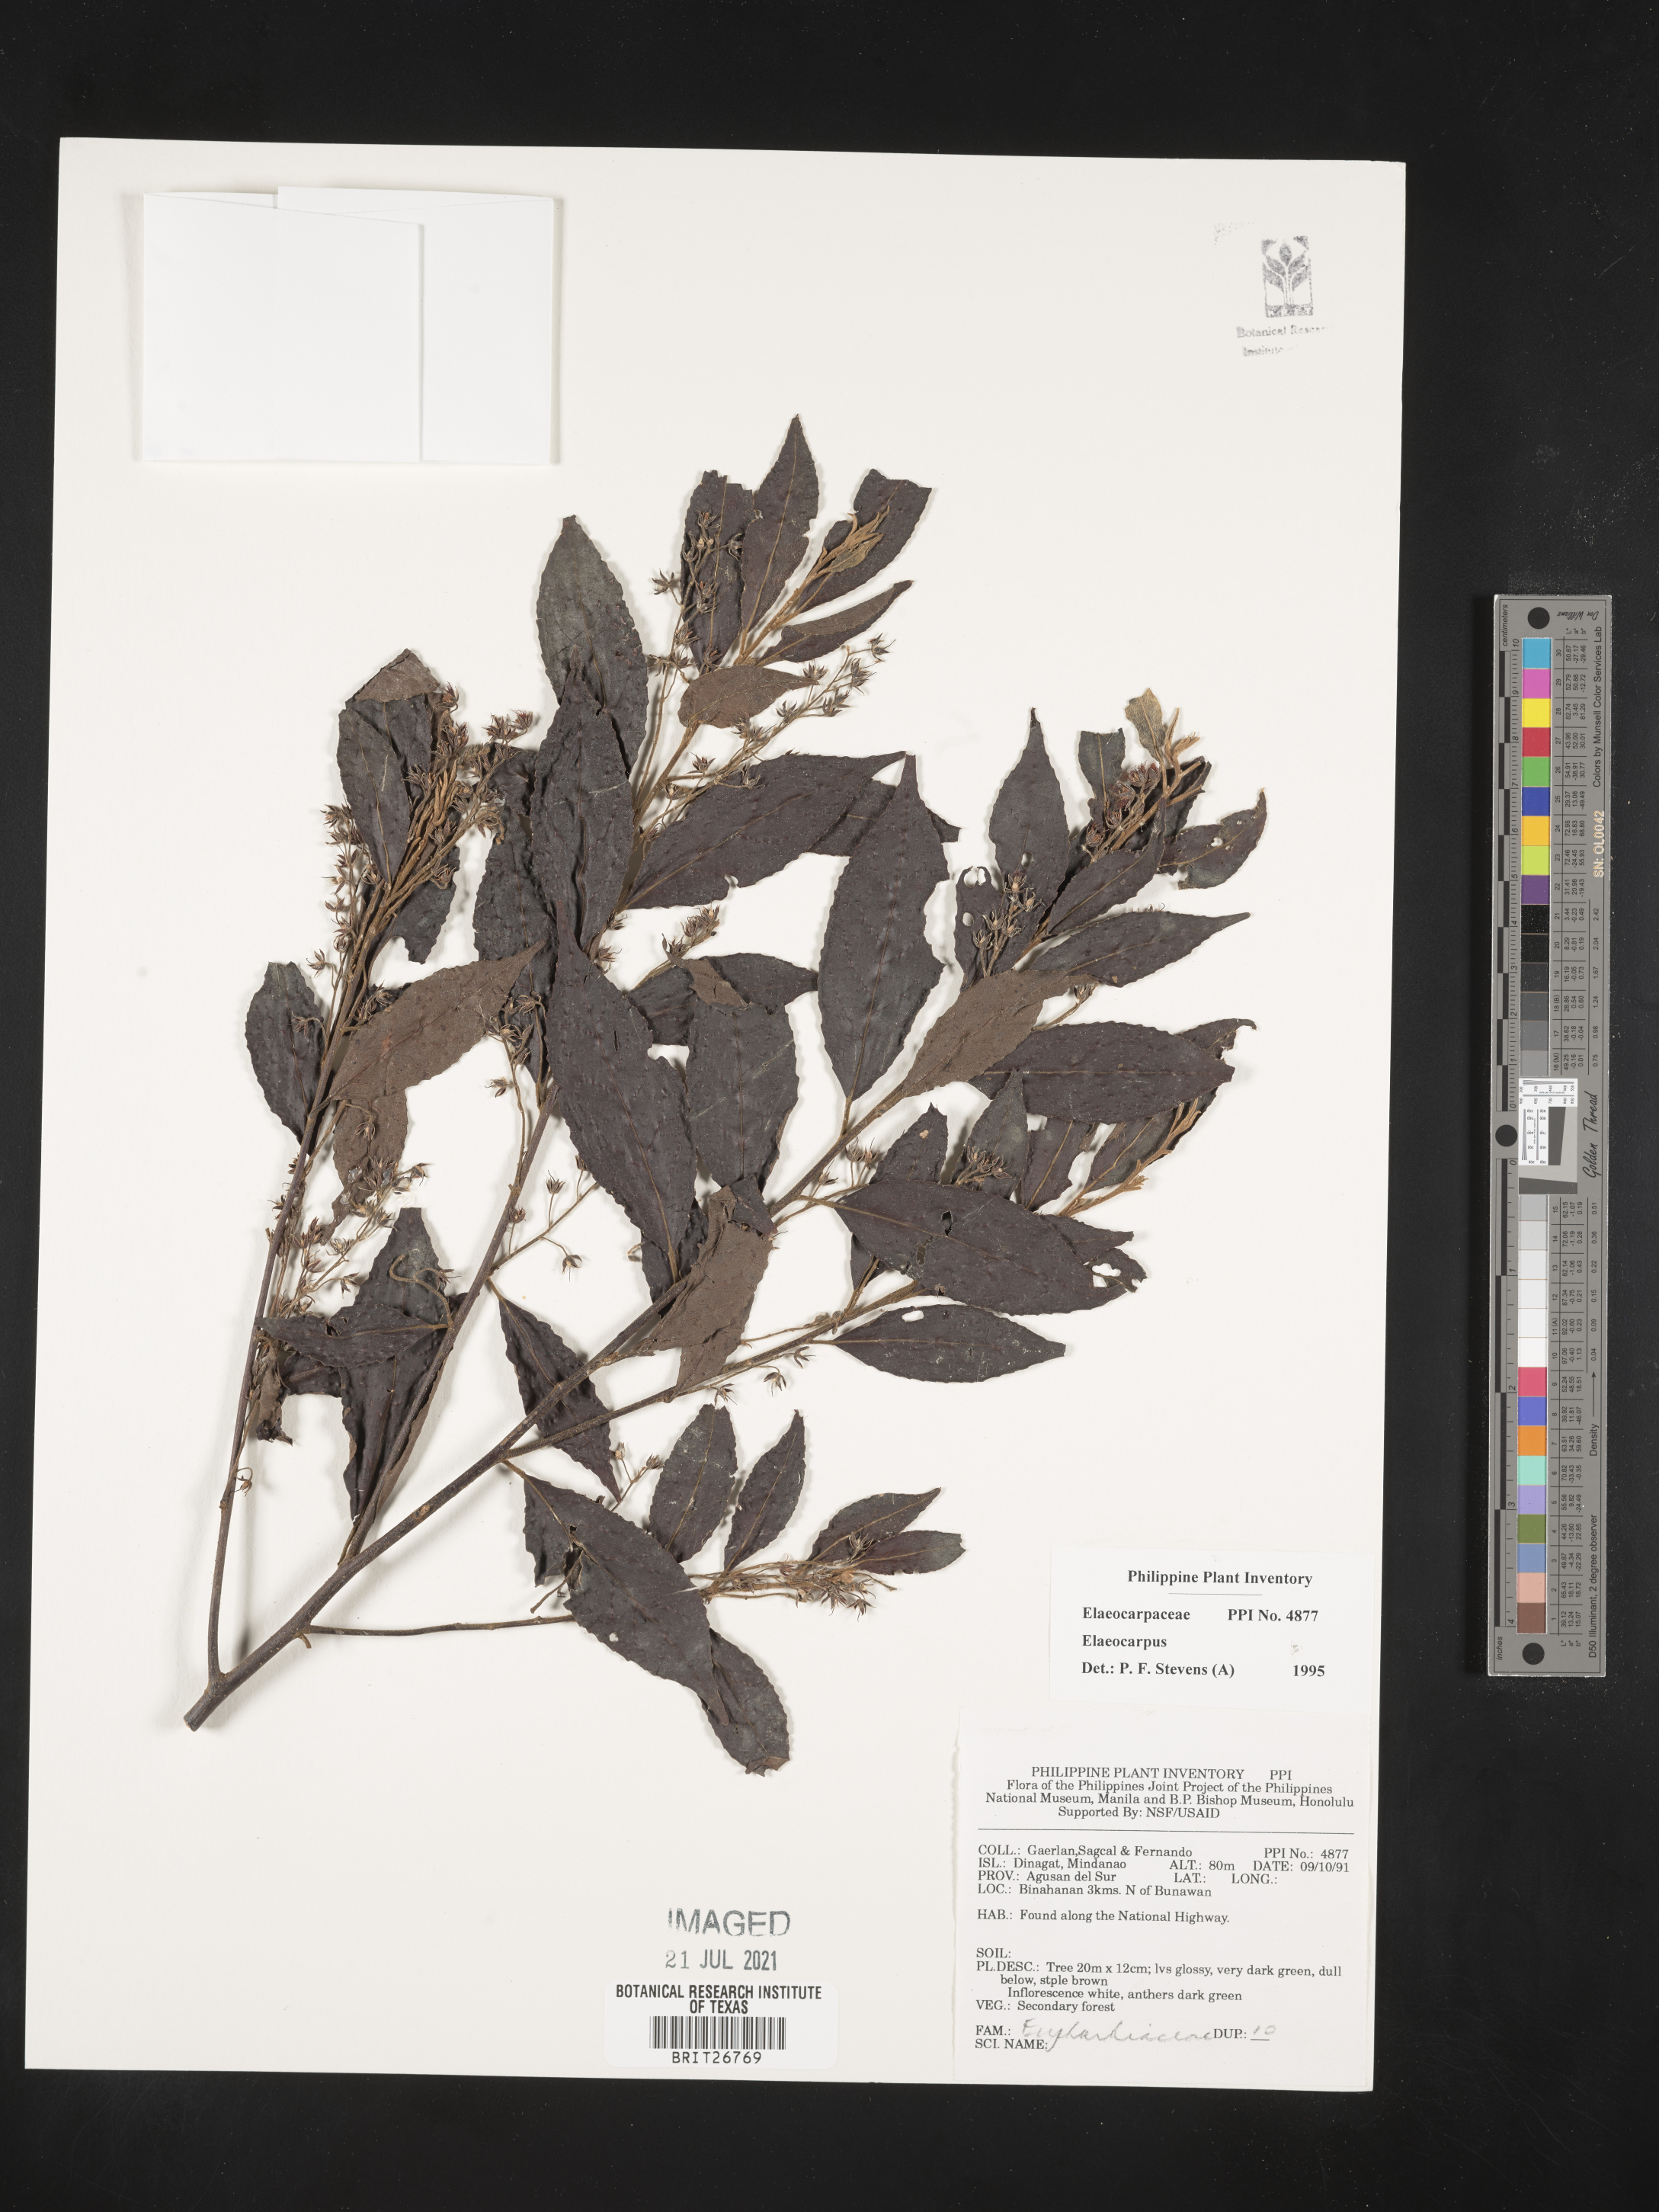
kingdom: Plantae
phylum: Tracheophyta
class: Magnoliopsida
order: Oxalidales
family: Elaeocarpaceae
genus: Elaeocarpus
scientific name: Elaeocarpus
